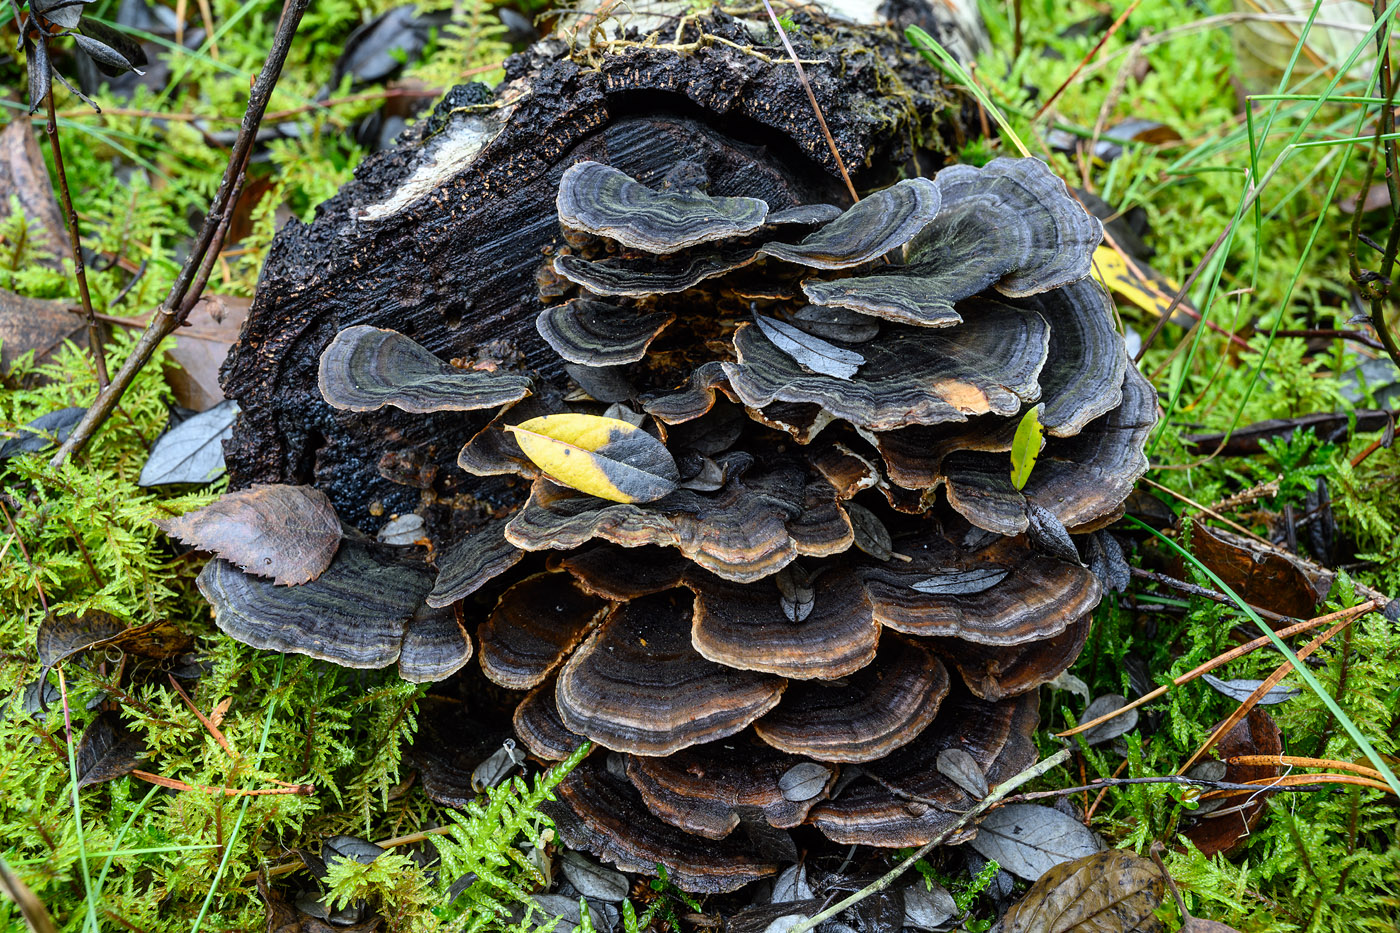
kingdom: Fungi
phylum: Basidiomycota
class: Agaricomycetes
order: Polyporales
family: Polyporaceae
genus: Trametes
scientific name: Trametes versicolor
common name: broget læderporesvamp
